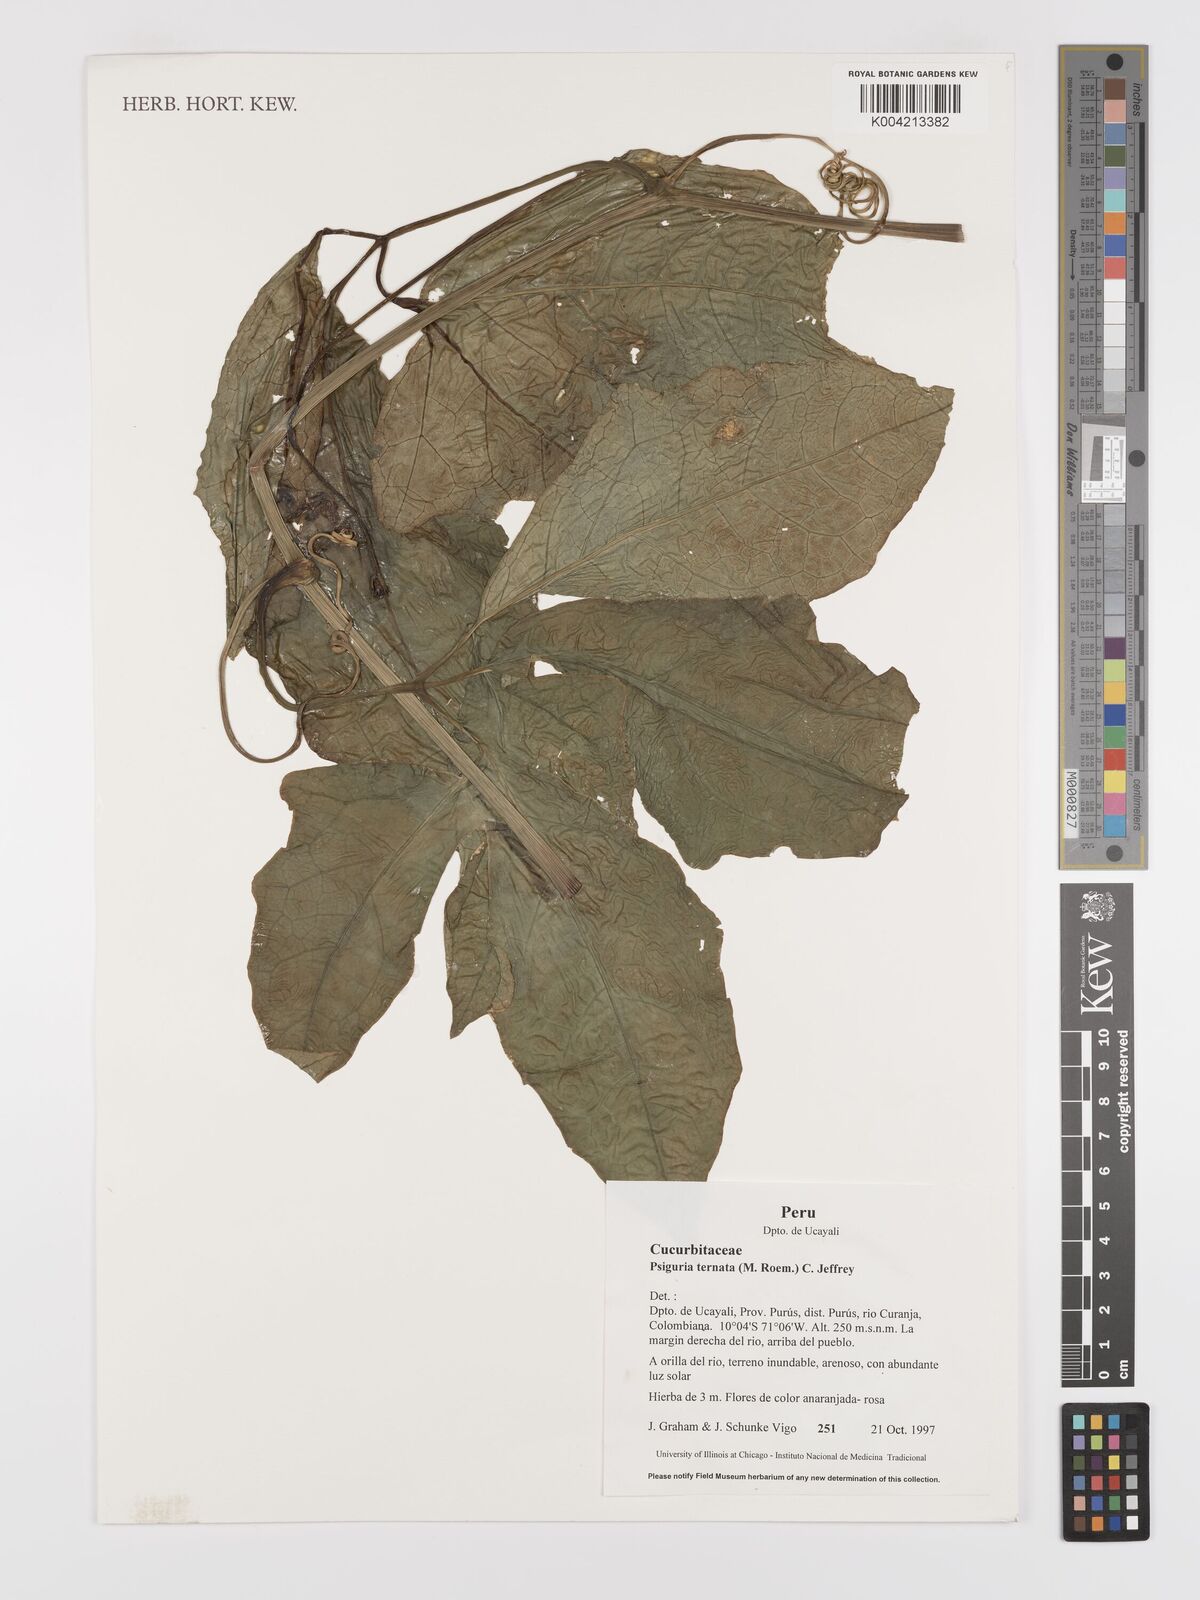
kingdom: Plantae
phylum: Tracheophyta
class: Magnoliopsida
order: Cucurbitales
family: Cucurbitaceae
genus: Psiguria
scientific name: Psiguria ternata
